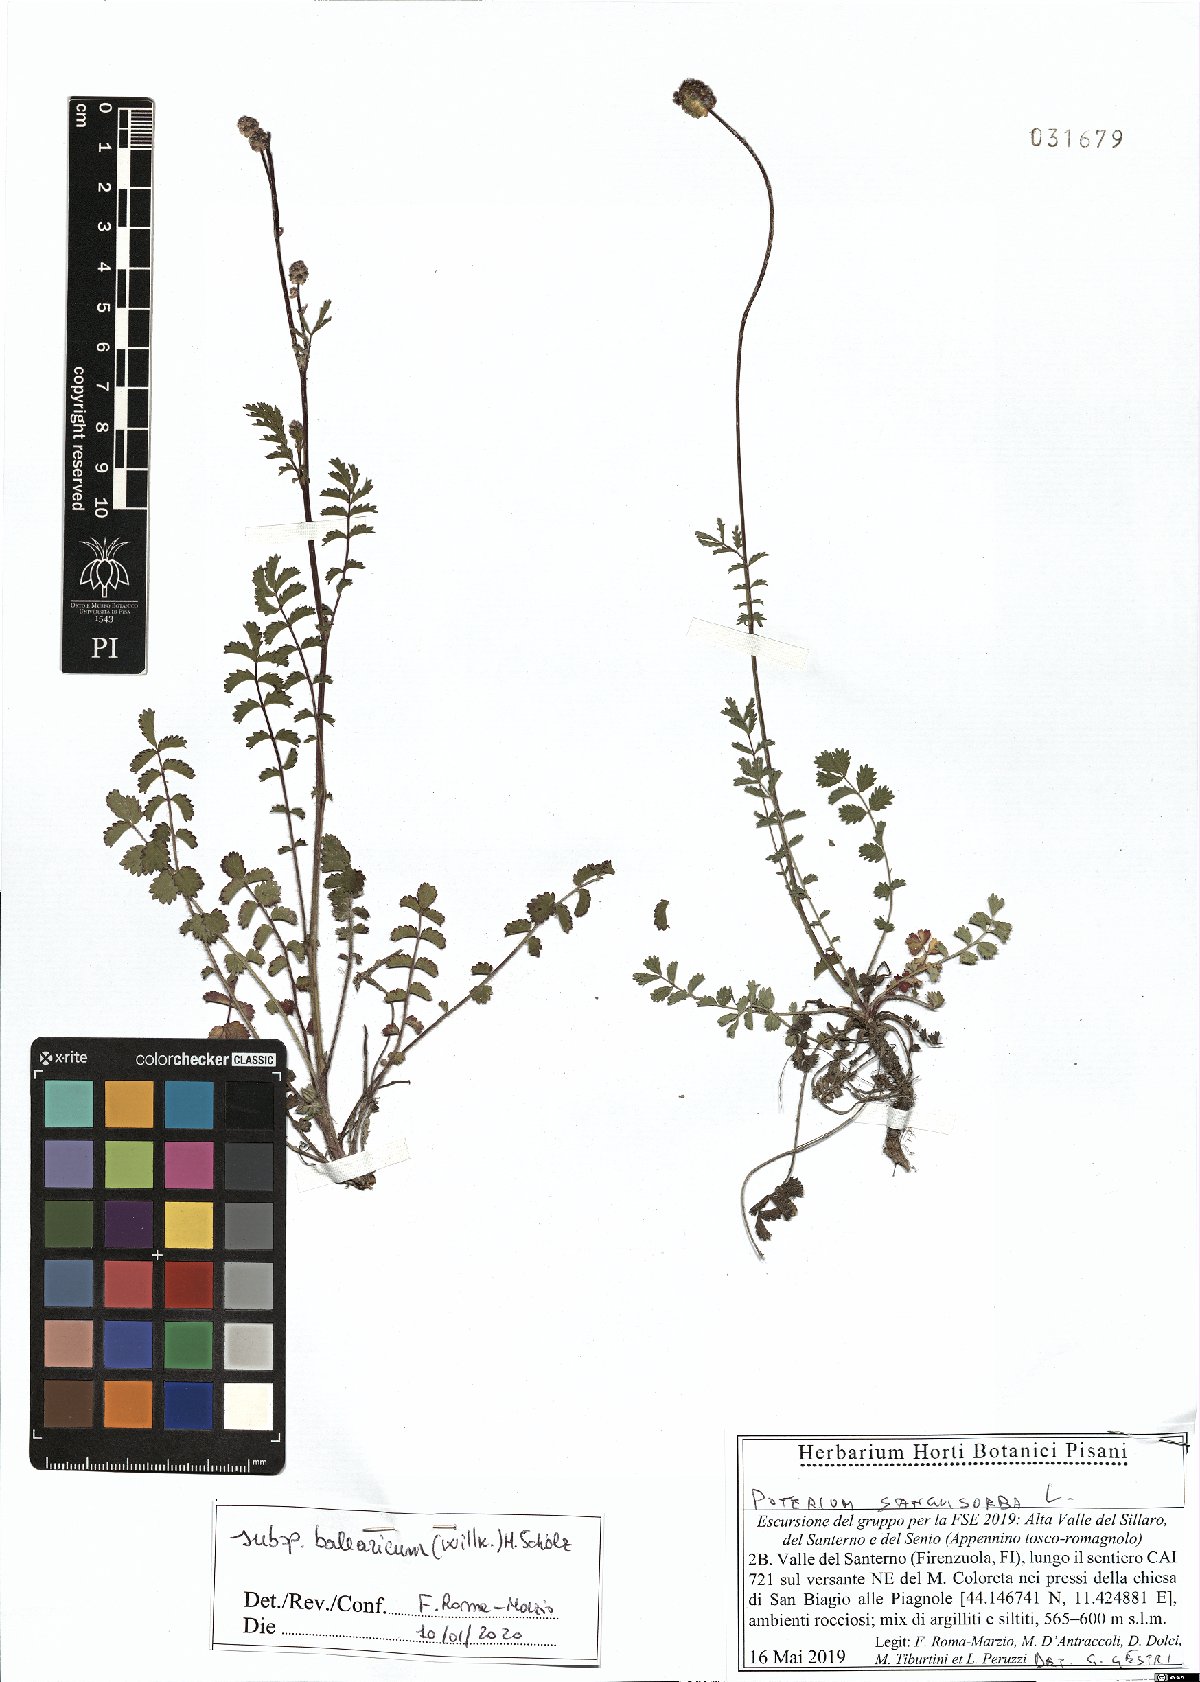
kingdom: Plantae
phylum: Tracheophyta
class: Magnoliopsida
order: Rosales
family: Rosaceae
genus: Poterium
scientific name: Poterium sanguisorba
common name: Salad burnet
